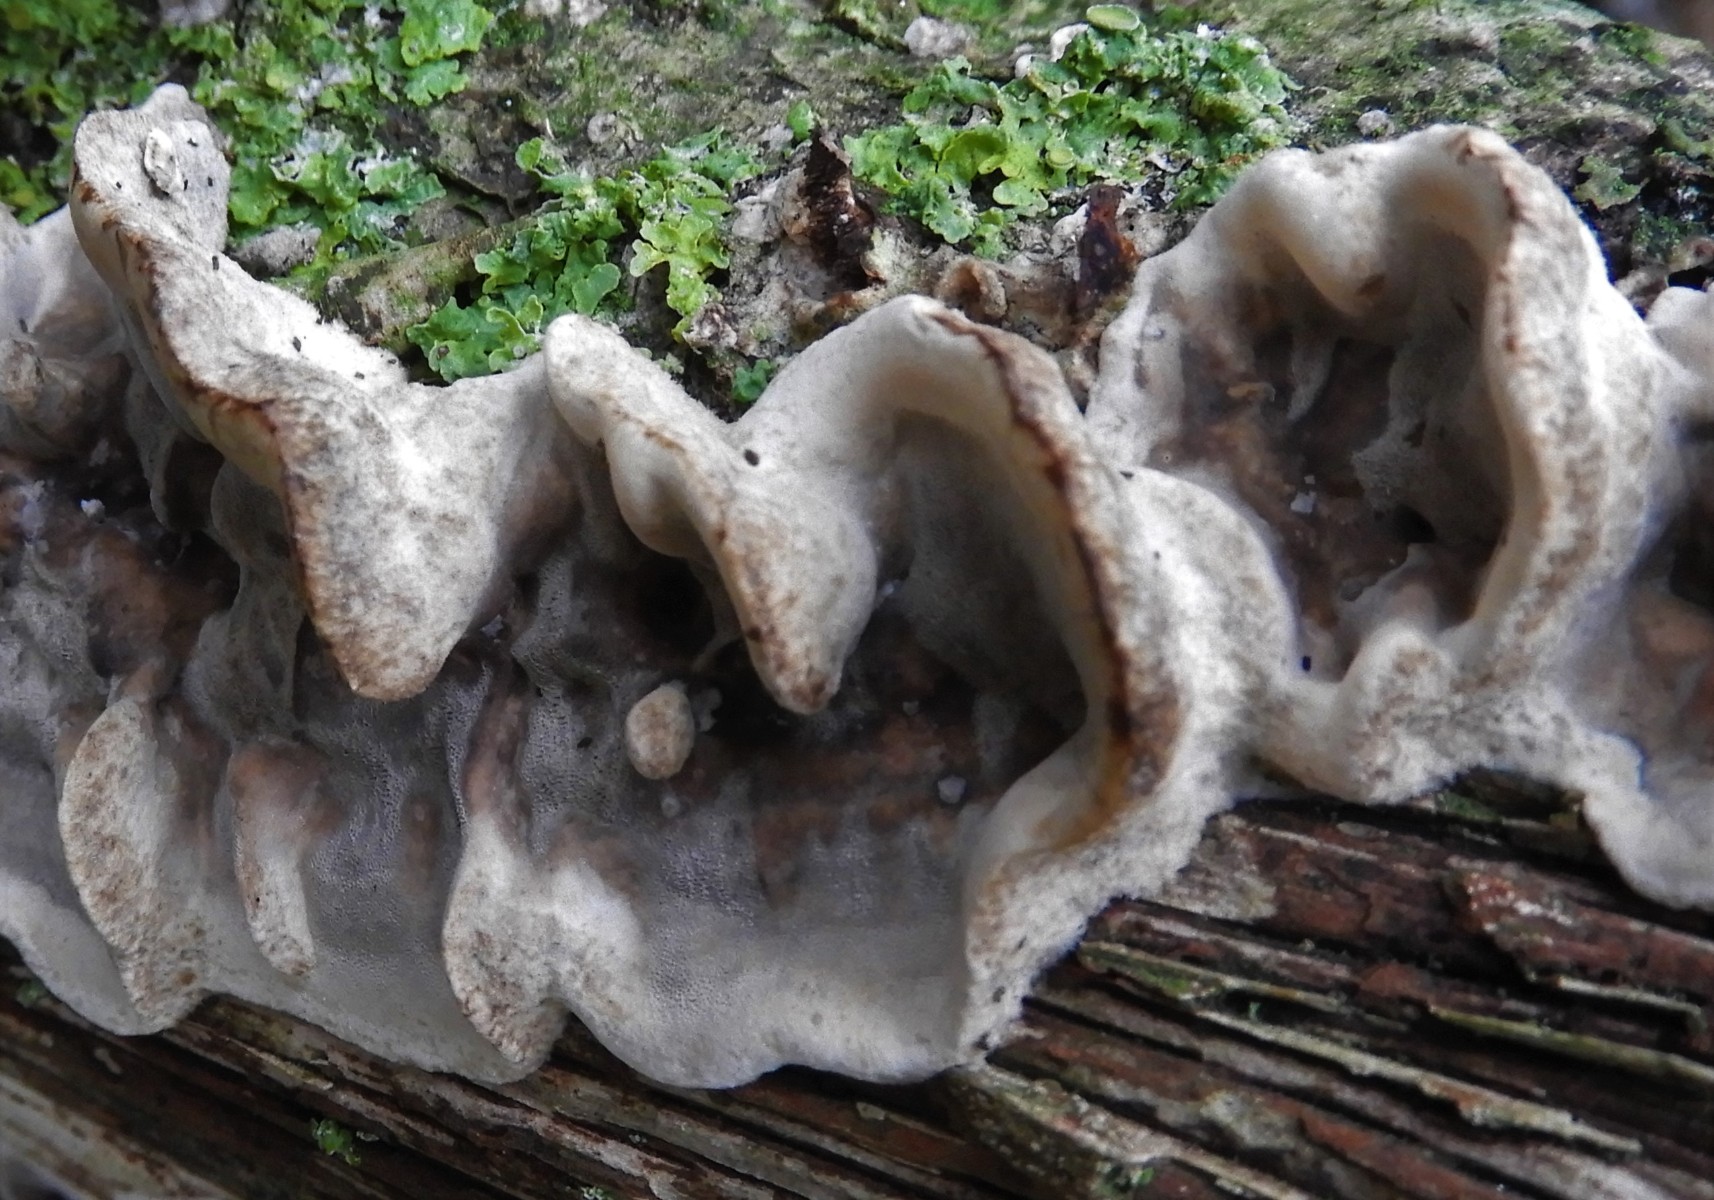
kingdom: Fungi
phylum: Basidiomycota
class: Agaricomycetes
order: Polyporales
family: Phanerochaetaceae
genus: Bjerkandera
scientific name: Bjerkandera fumosa
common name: grågul sodporesvamp
